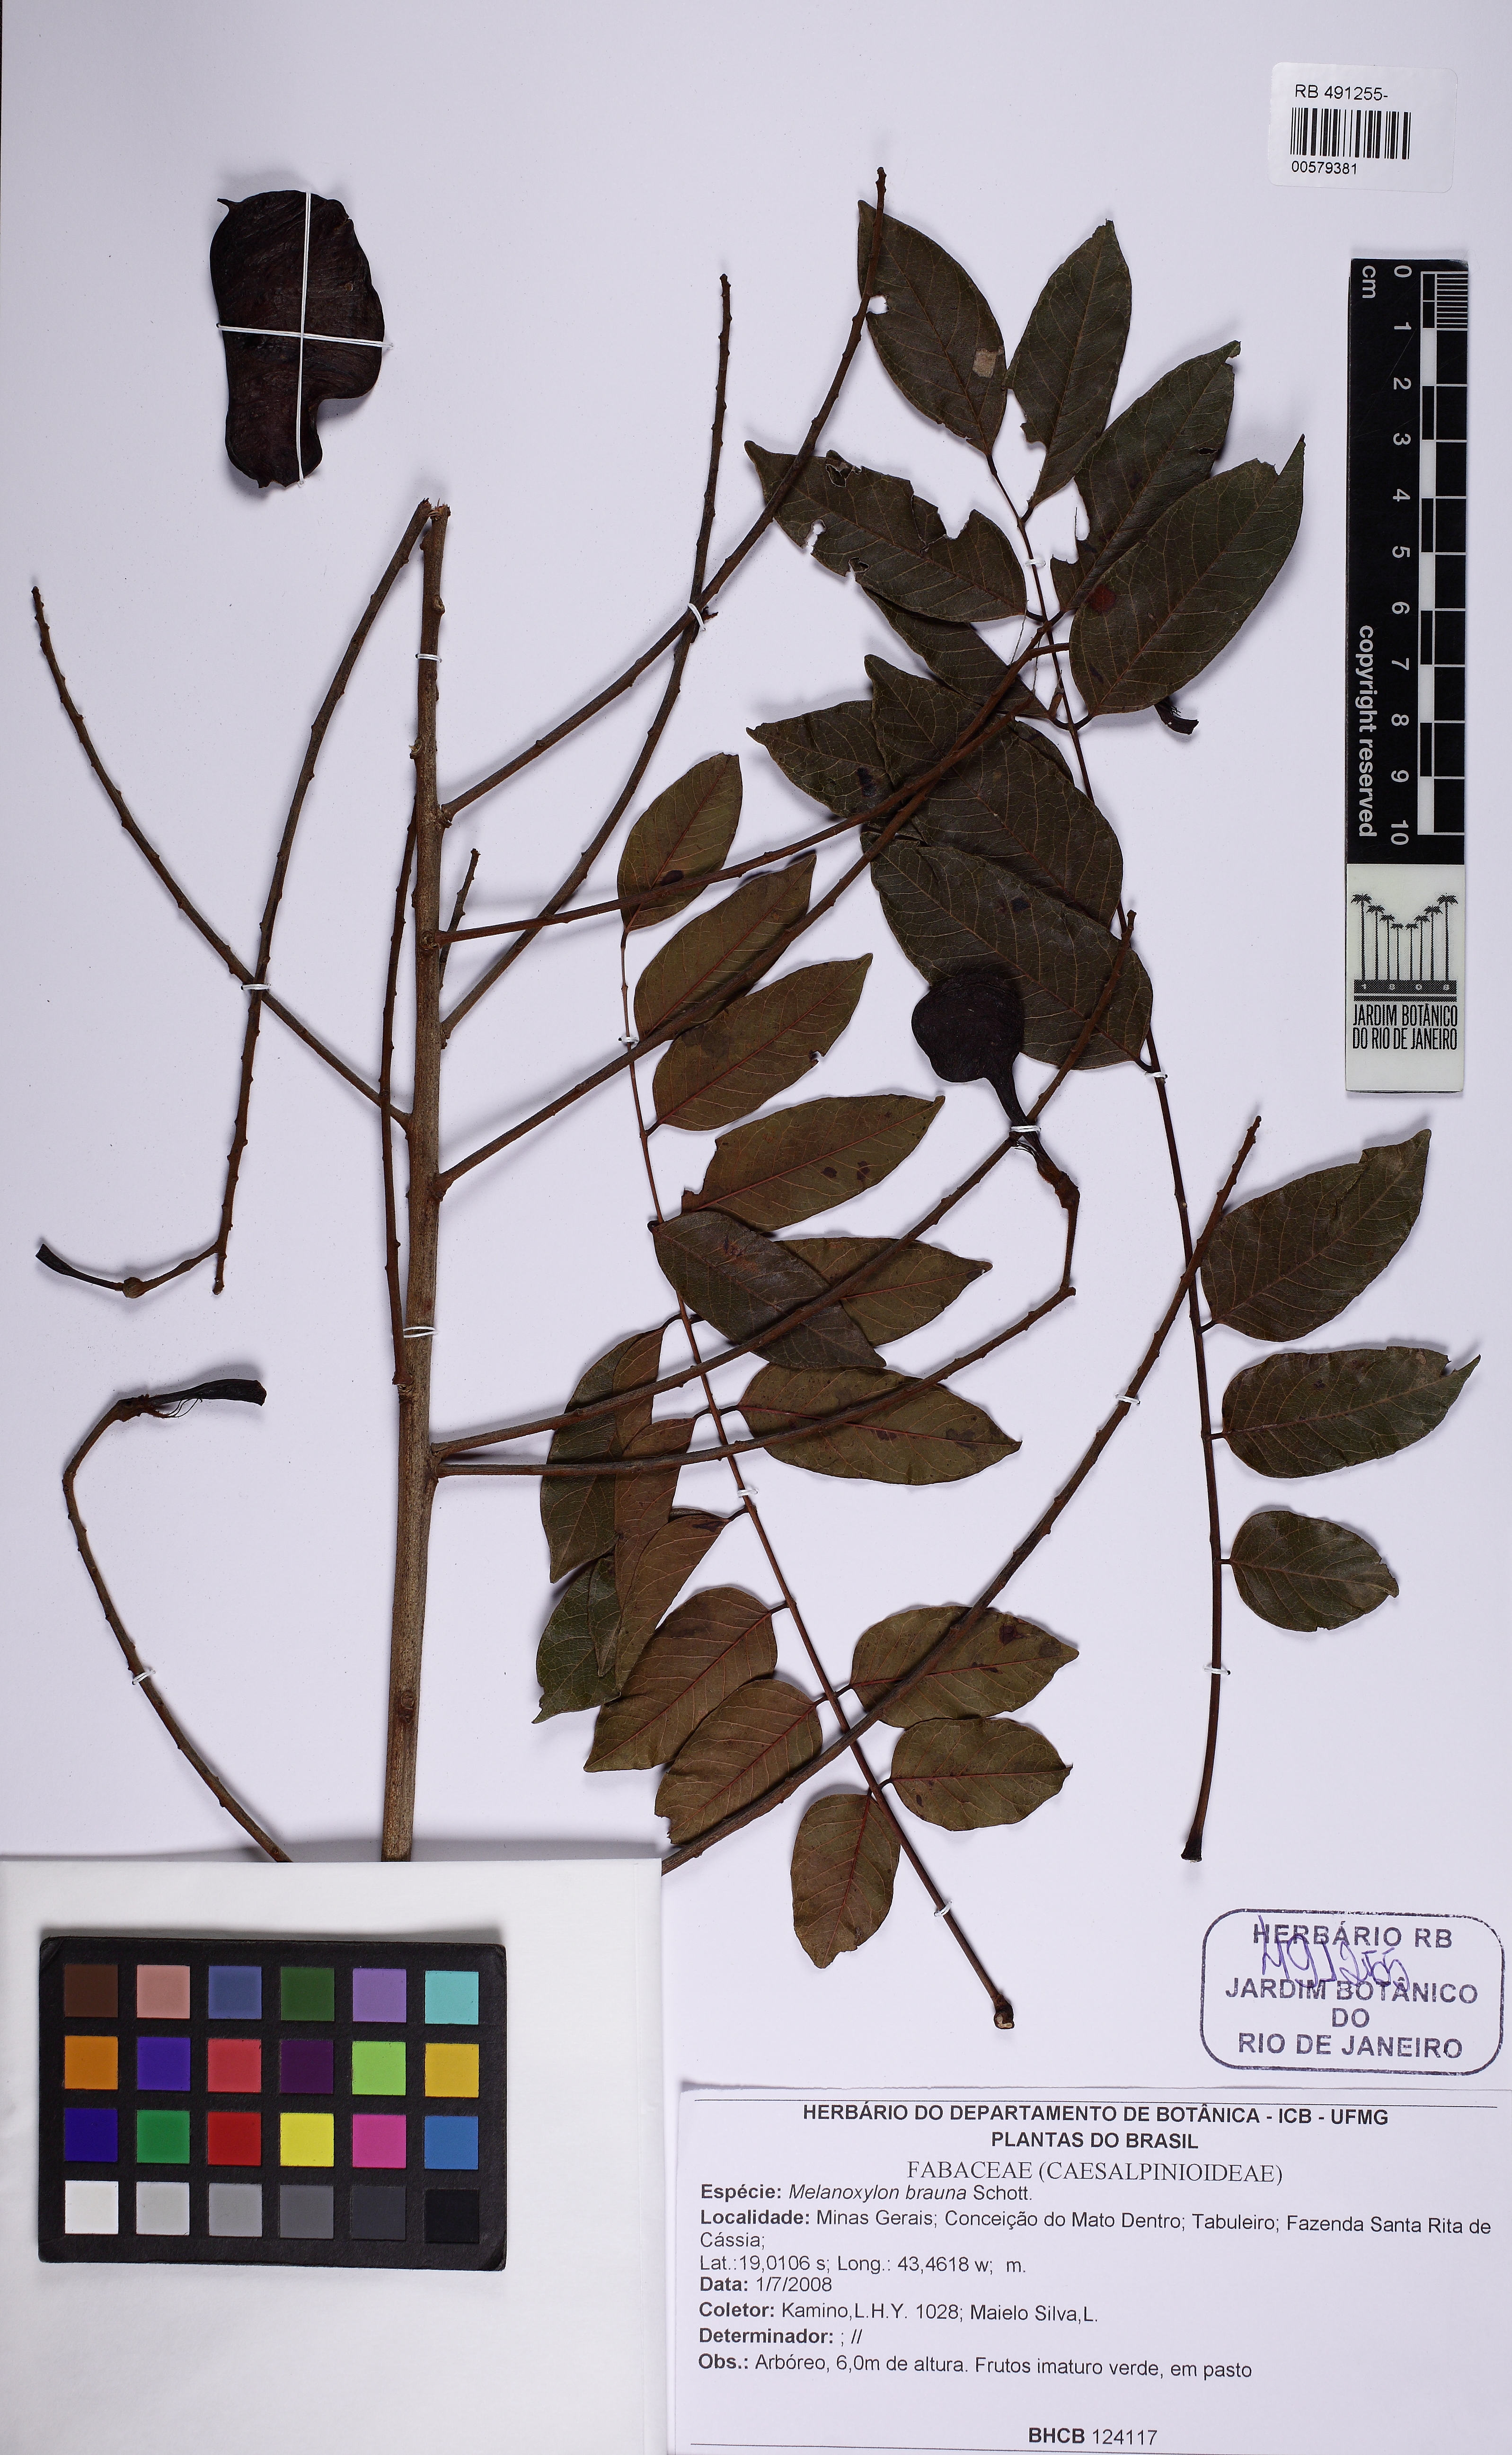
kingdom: Plantae
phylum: Tracheophyta
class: Magnoliopsida
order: Fabales
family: Fabaceae
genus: Melanoxylon
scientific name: Melanoxylon brauna
